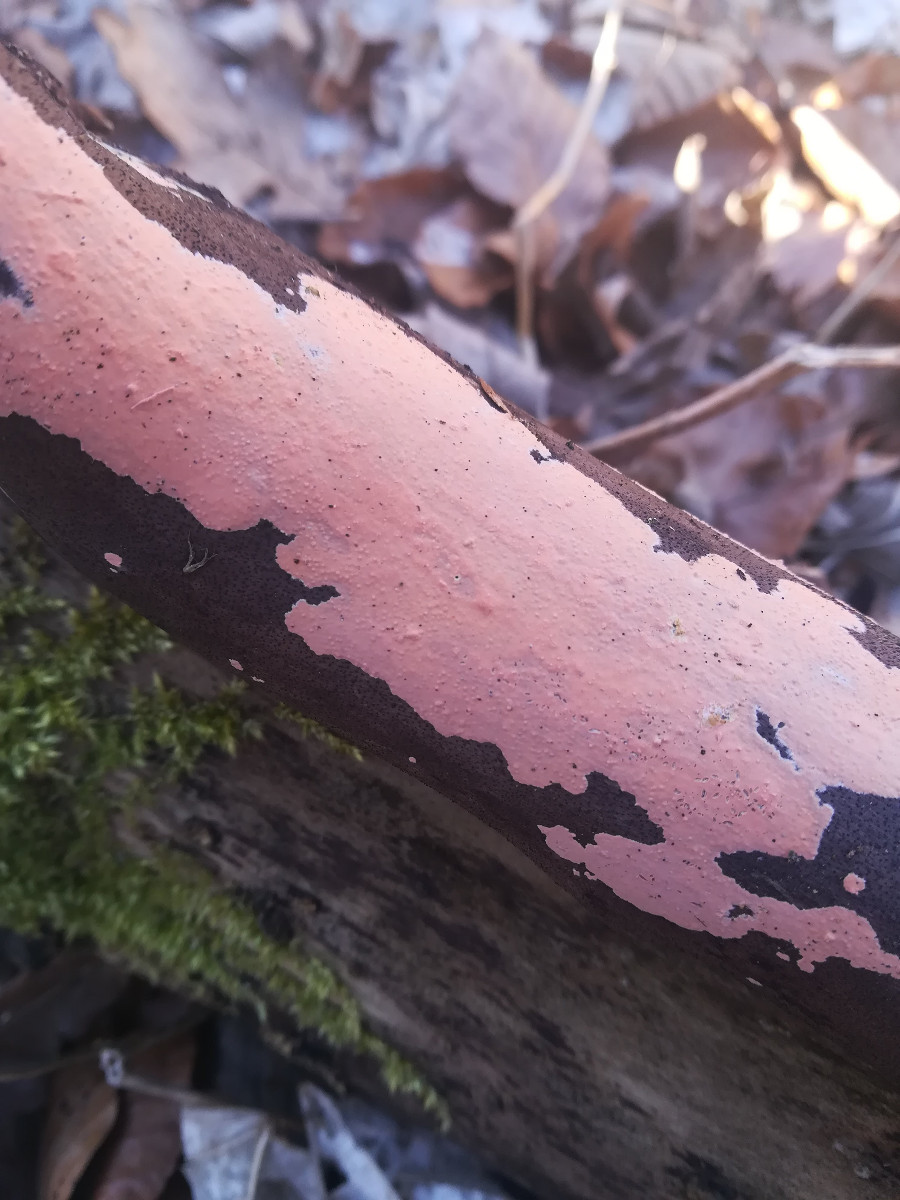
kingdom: Fungi
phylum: Basidiomycota
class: Agaricomycetes
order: Russulales
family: Peniophoraceae
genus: Peniophora
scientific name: Peniophora incarnata
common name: laksefarvet voksskind
